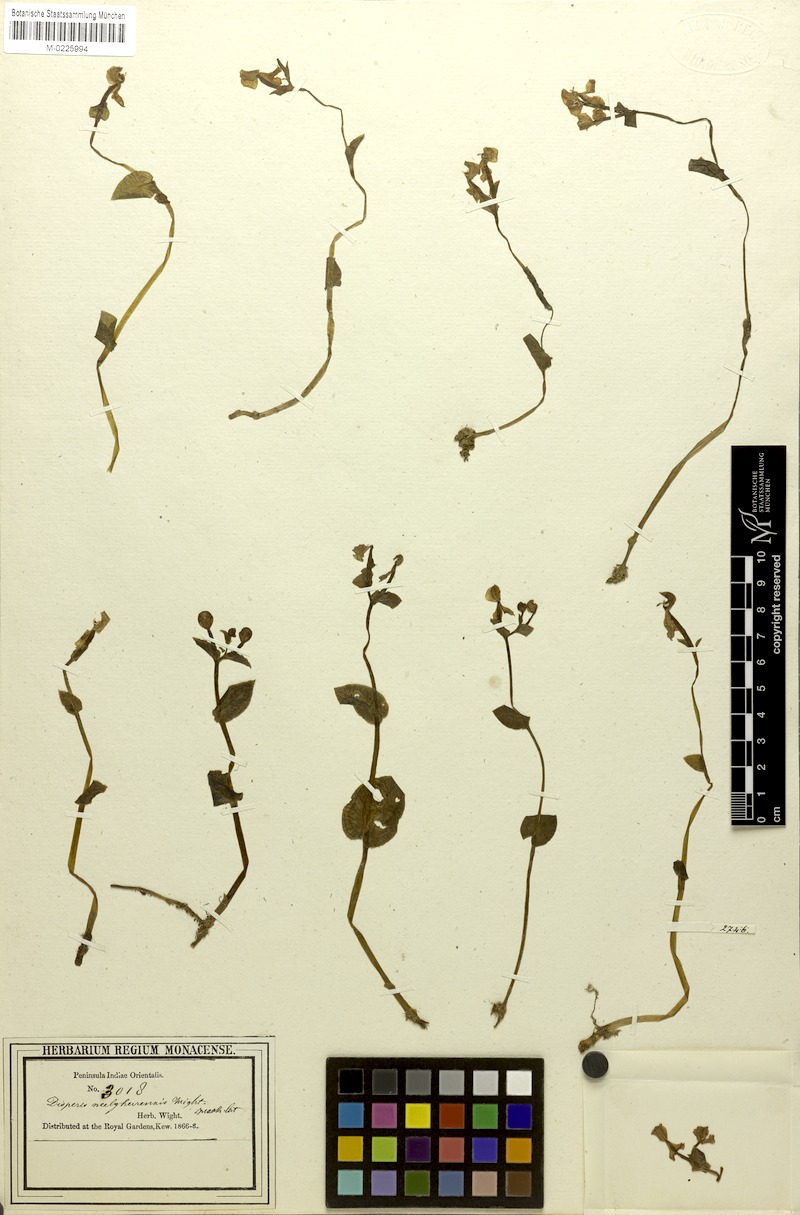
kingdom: Plantae
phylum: Tracheophyta
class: Liliopsida
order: Asparagales
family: Orchidaceae
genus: Disperis
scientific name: Disperis neilgherrensis
